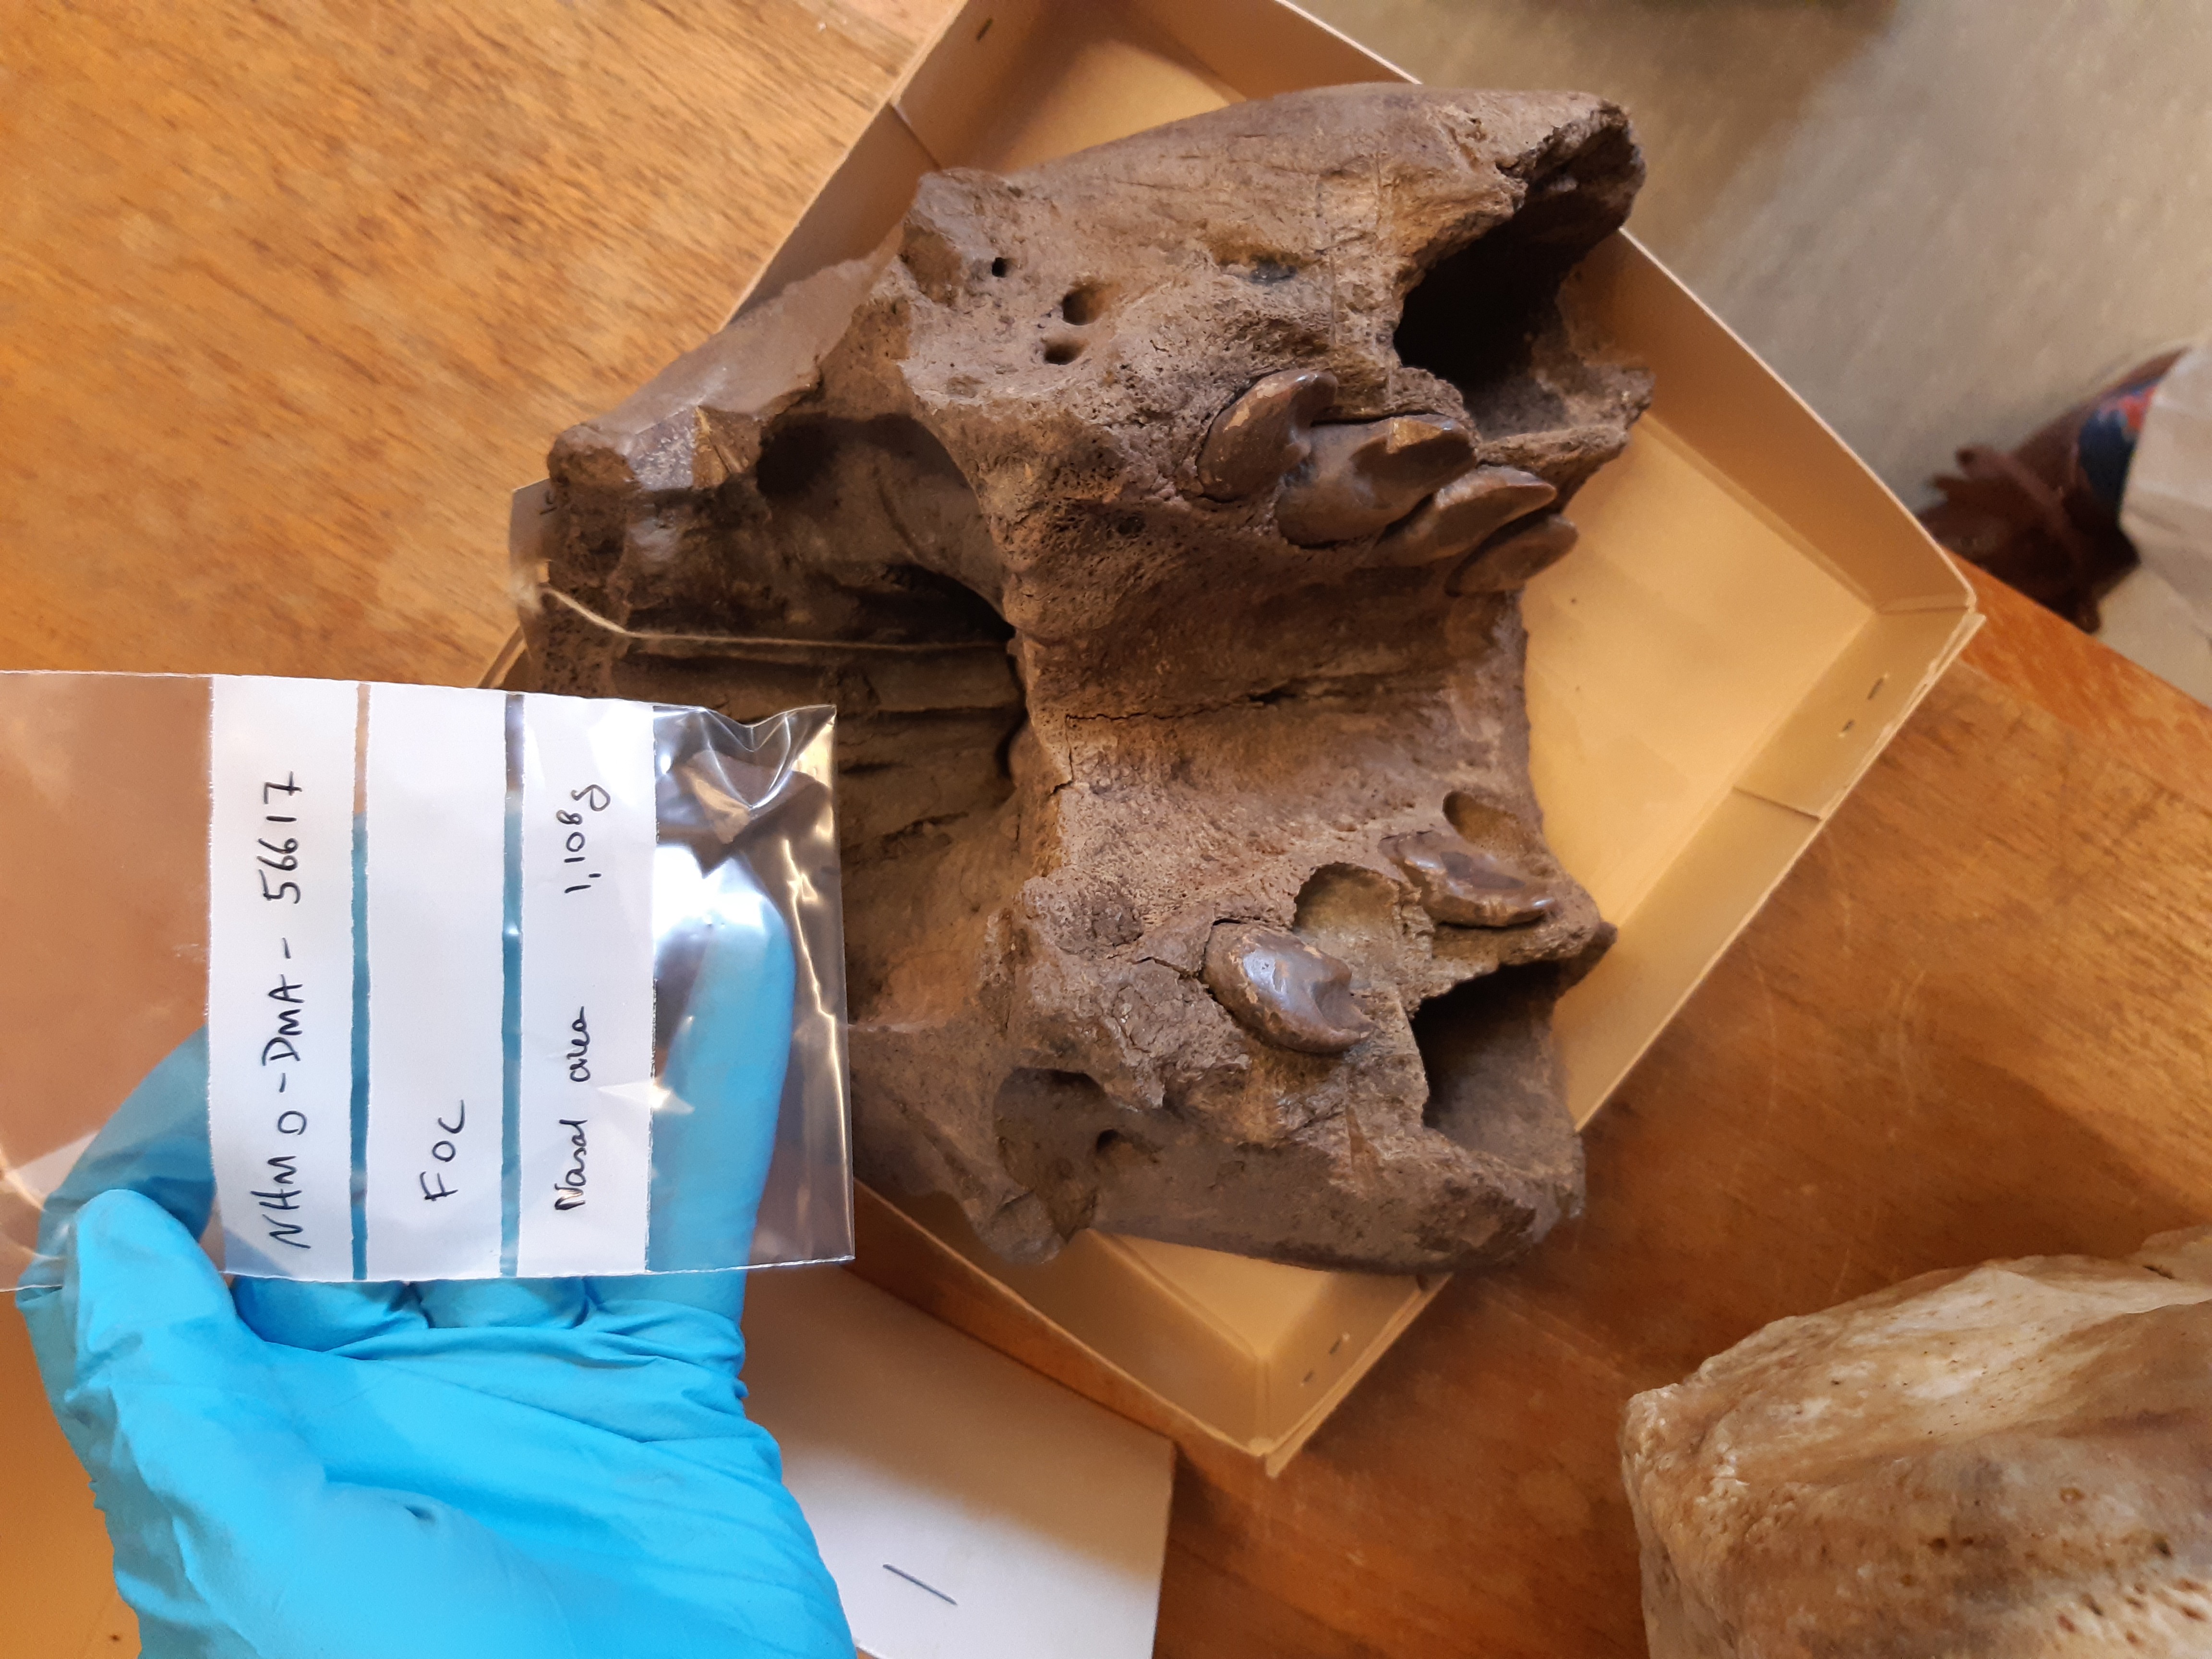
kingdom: Animalia
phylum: Chordata
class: Aves
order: Charadriiformes
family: Laridae
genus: Larus
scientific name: Larus hyperboreus
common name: Glaucous gull
